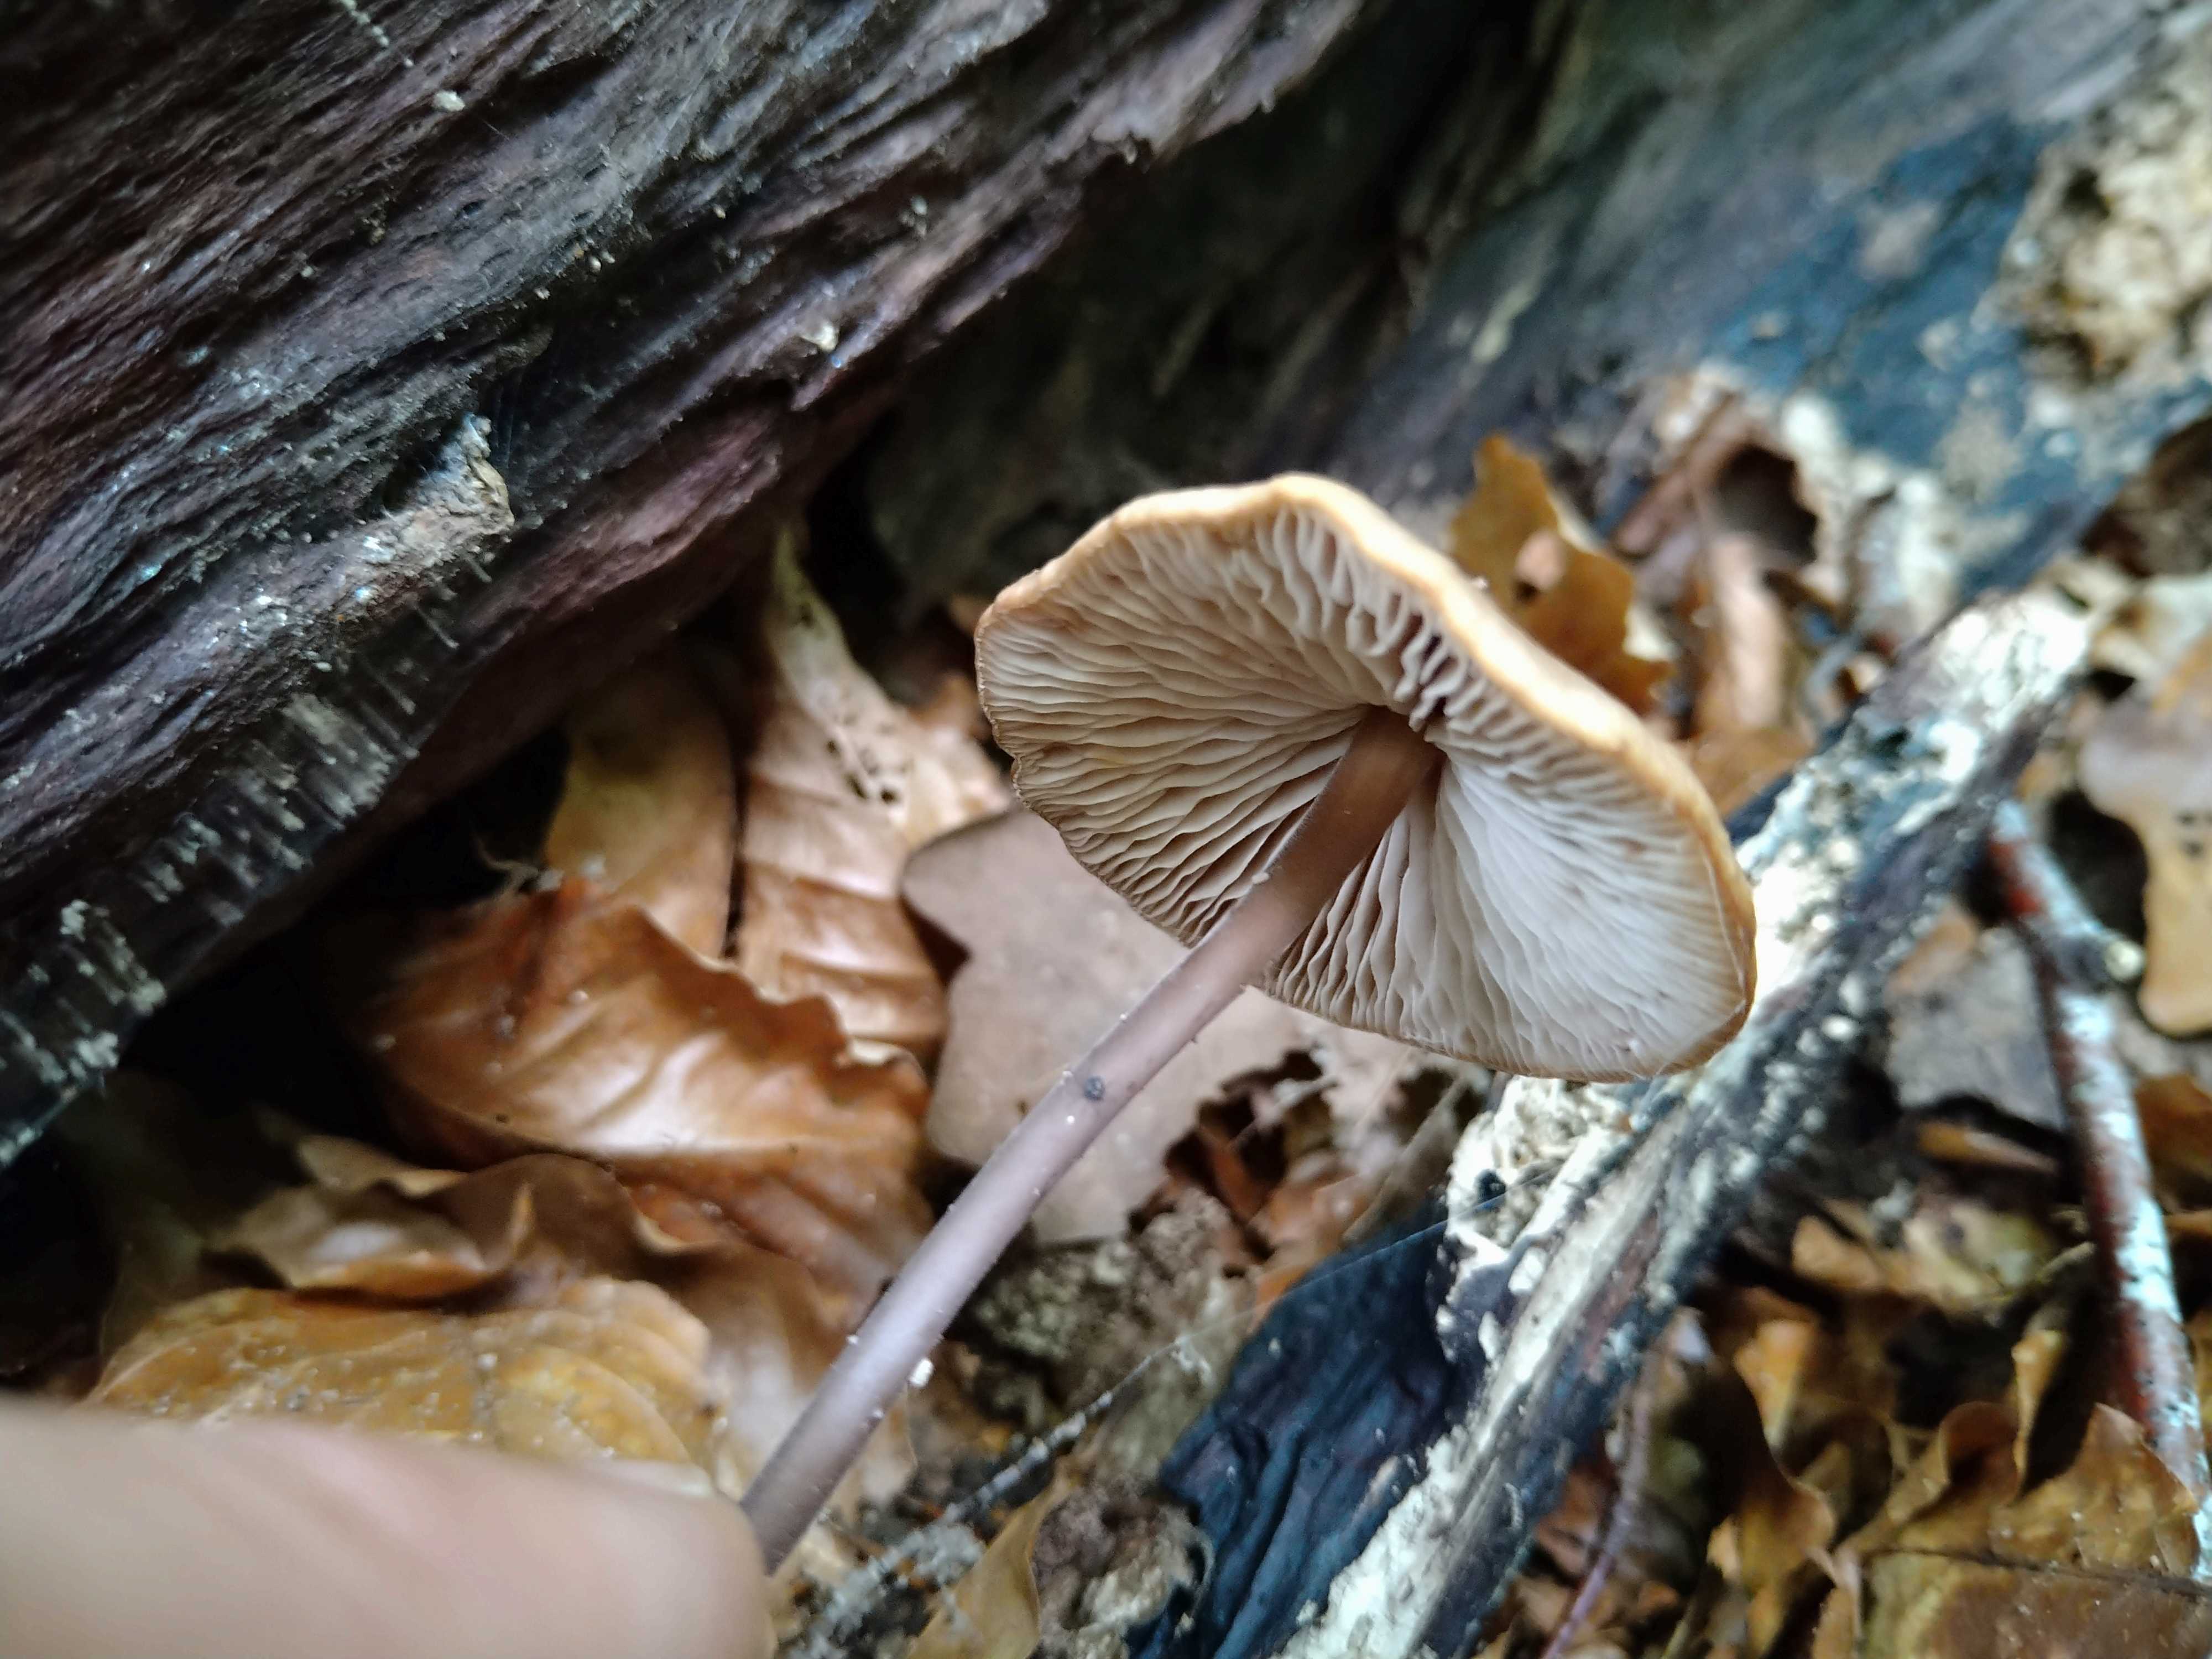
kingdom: Fungi
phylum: Basidiomycota
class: Agaricomycetes
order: Agaricales
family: Omphalotaceae
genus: Mycetinis
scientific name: Mycetinis alliaceus
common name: stor løghat
